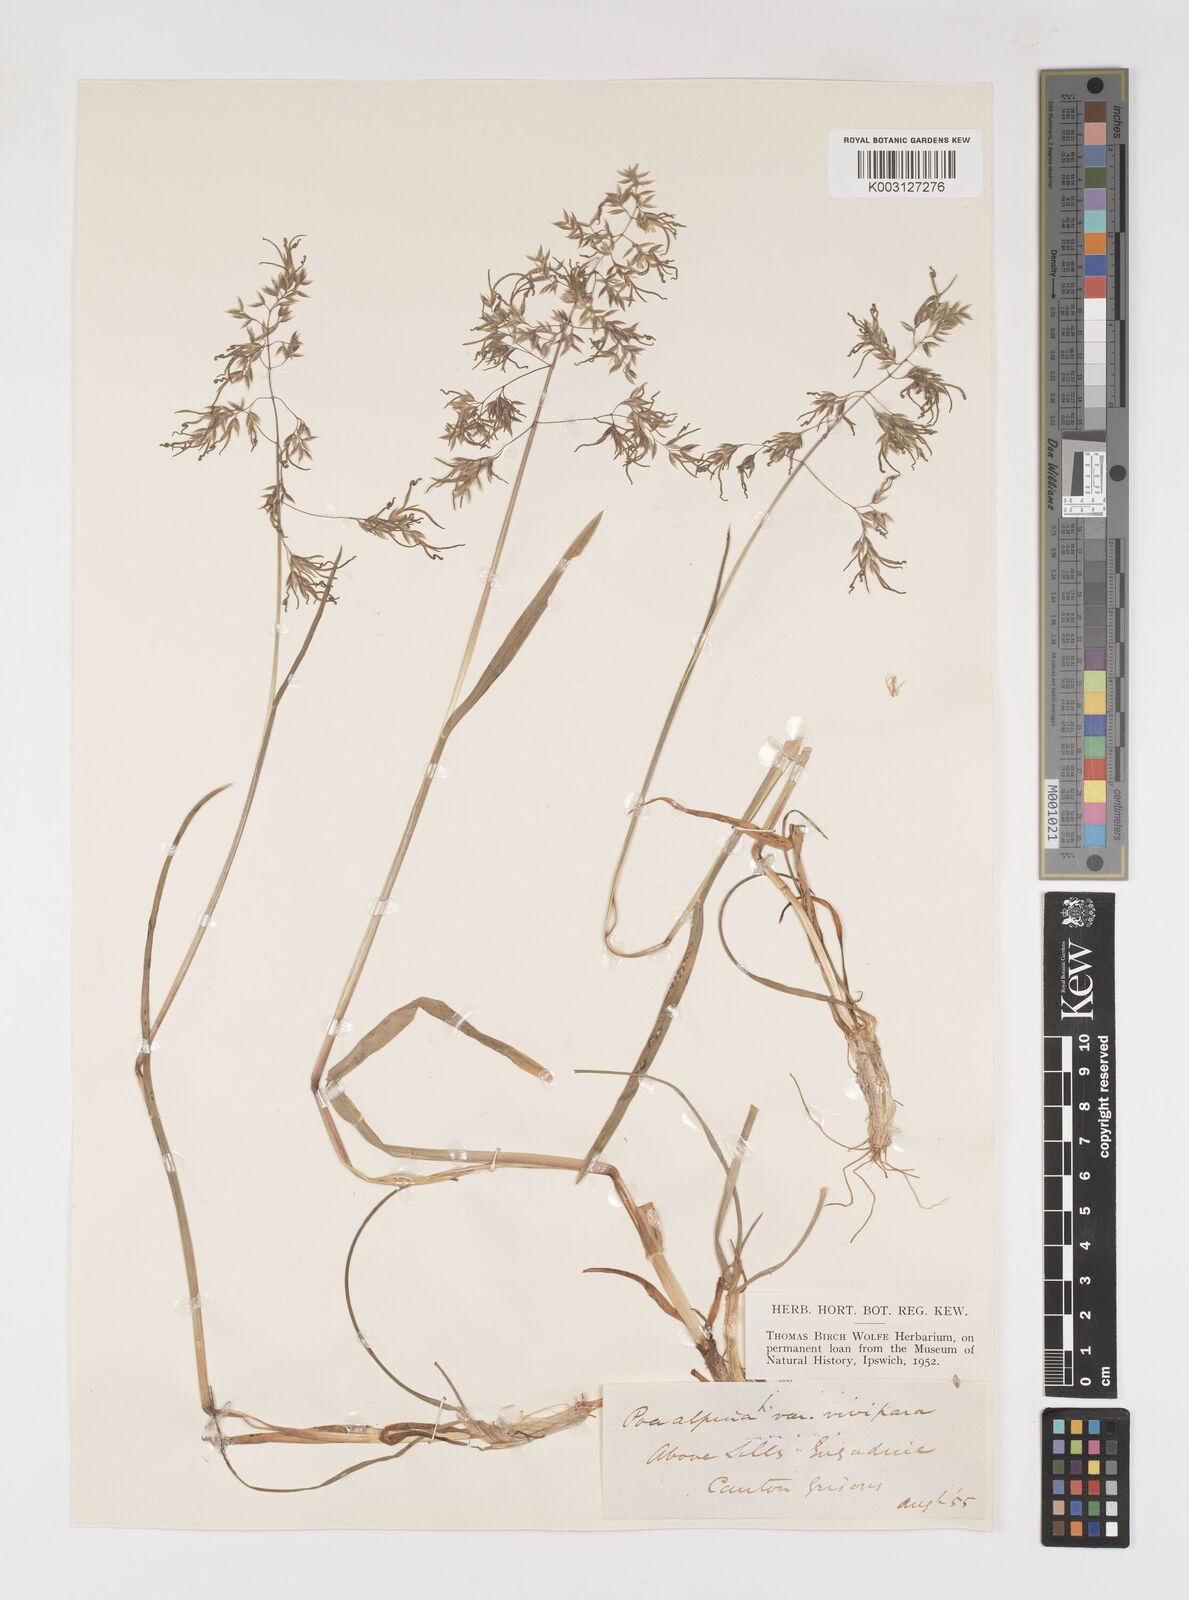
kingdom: Plantae
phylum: Tracheophyta
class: Liliopsida
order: Poales
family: Poaceae
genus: Poa
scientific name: Poa alpina
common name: Alpine bluegrass
